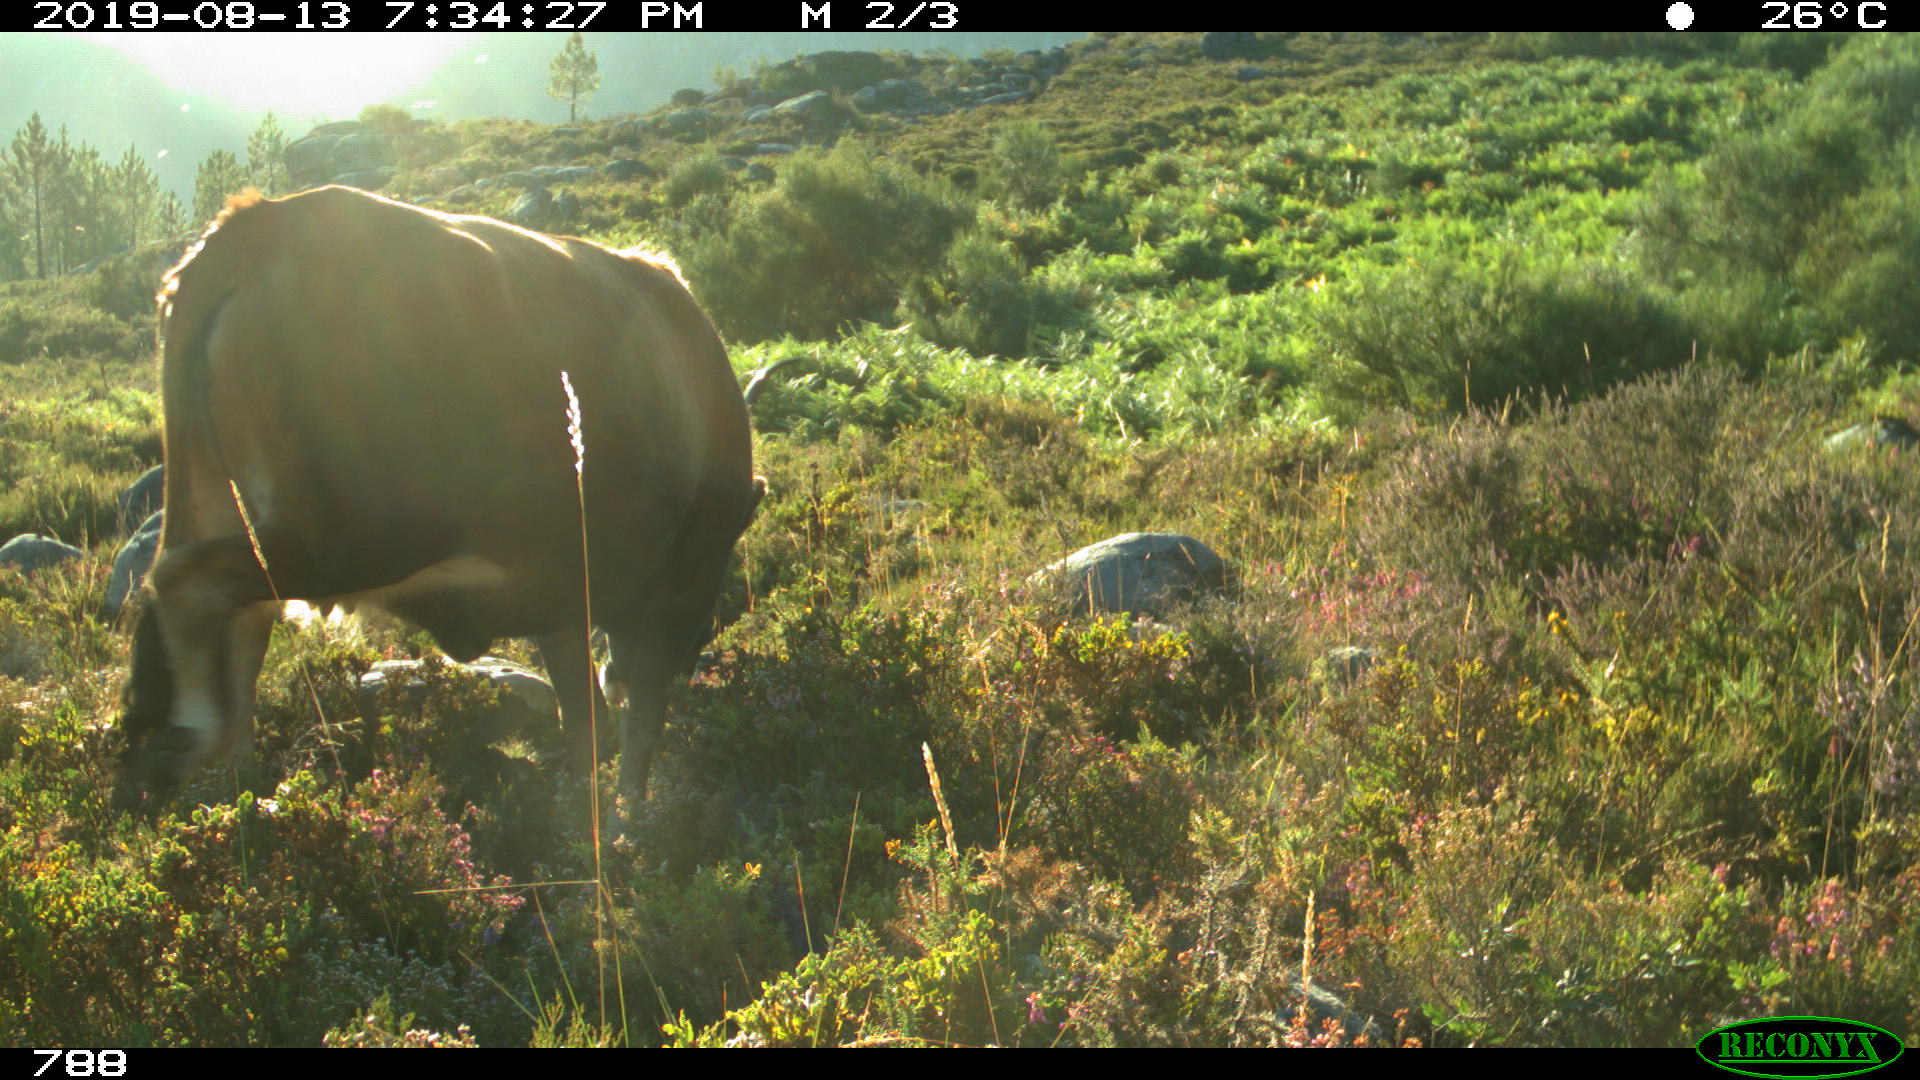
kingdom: Animalia
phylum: Chordata
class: Mammalia
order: Artiodactyla
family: Bovidae
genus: Bos
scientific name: Bos taurus
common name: Domesticated cattle
